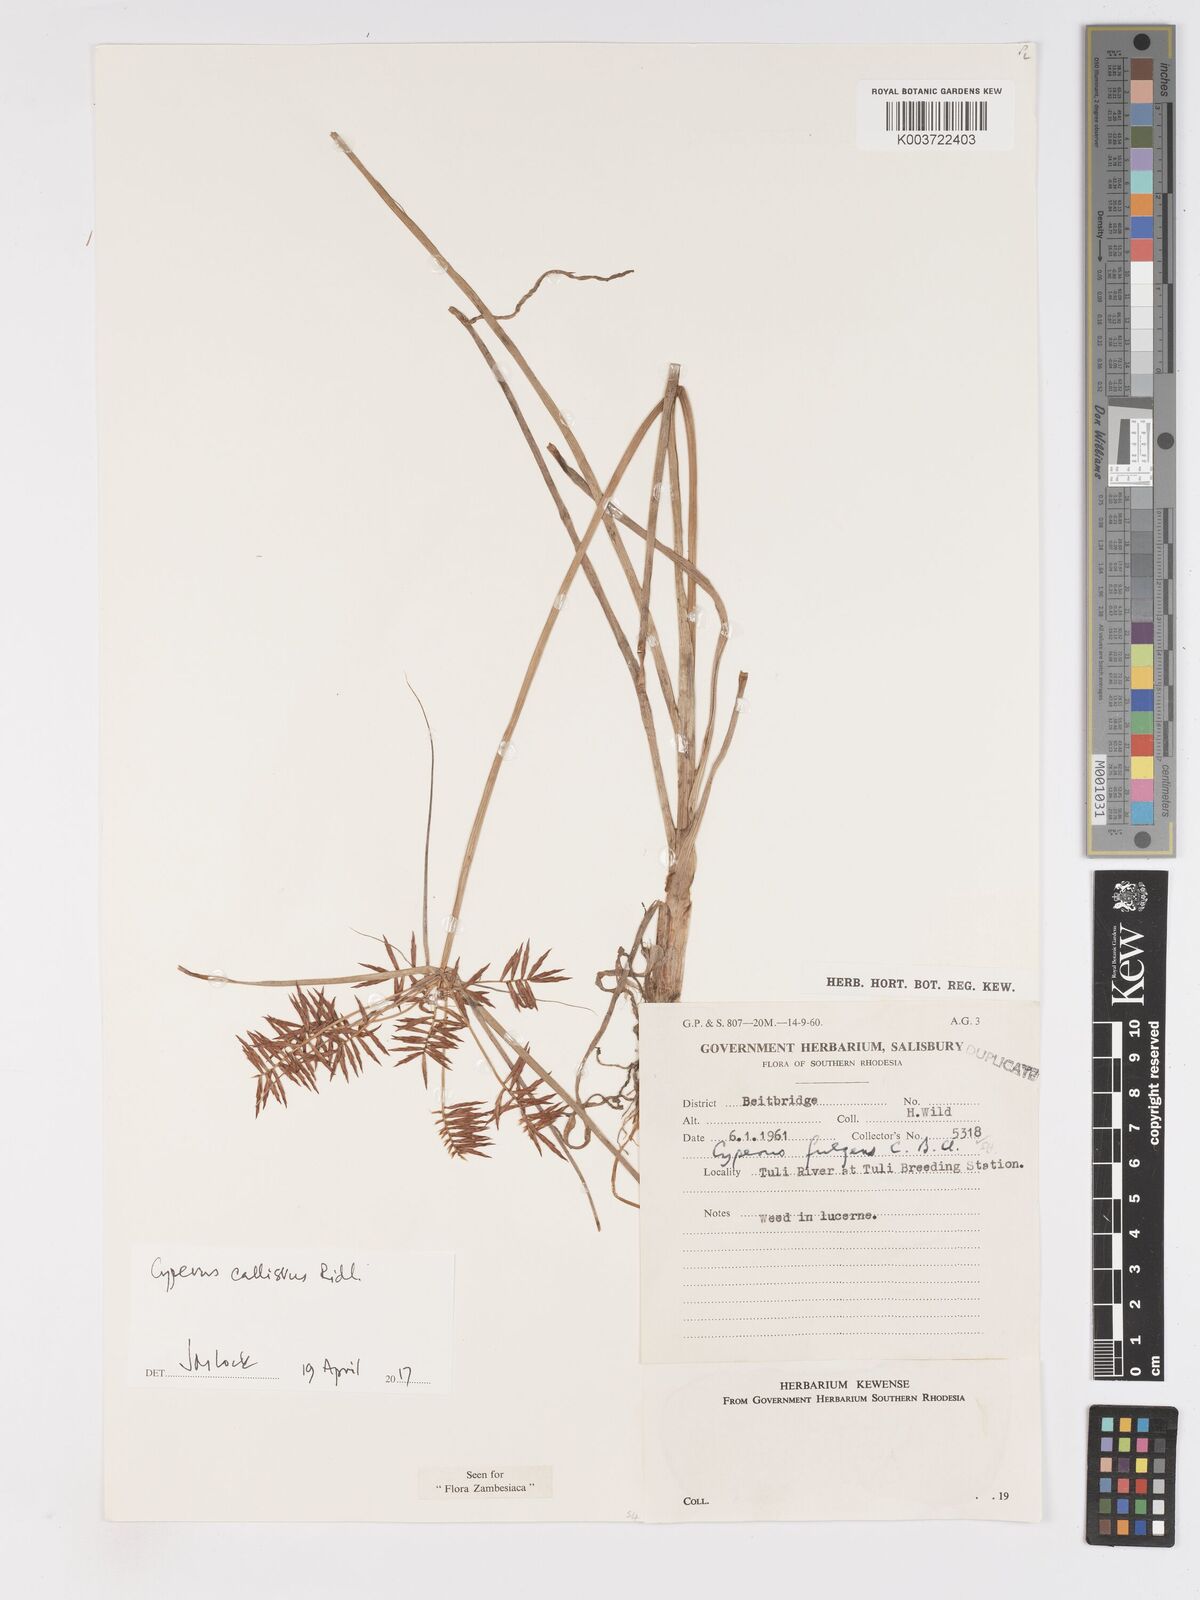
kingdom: Plantae
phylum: Tracheophyta
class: Liliopsida
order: Poales
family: Cyperaceae
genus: Cyperus
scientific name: Cyperus callistus
